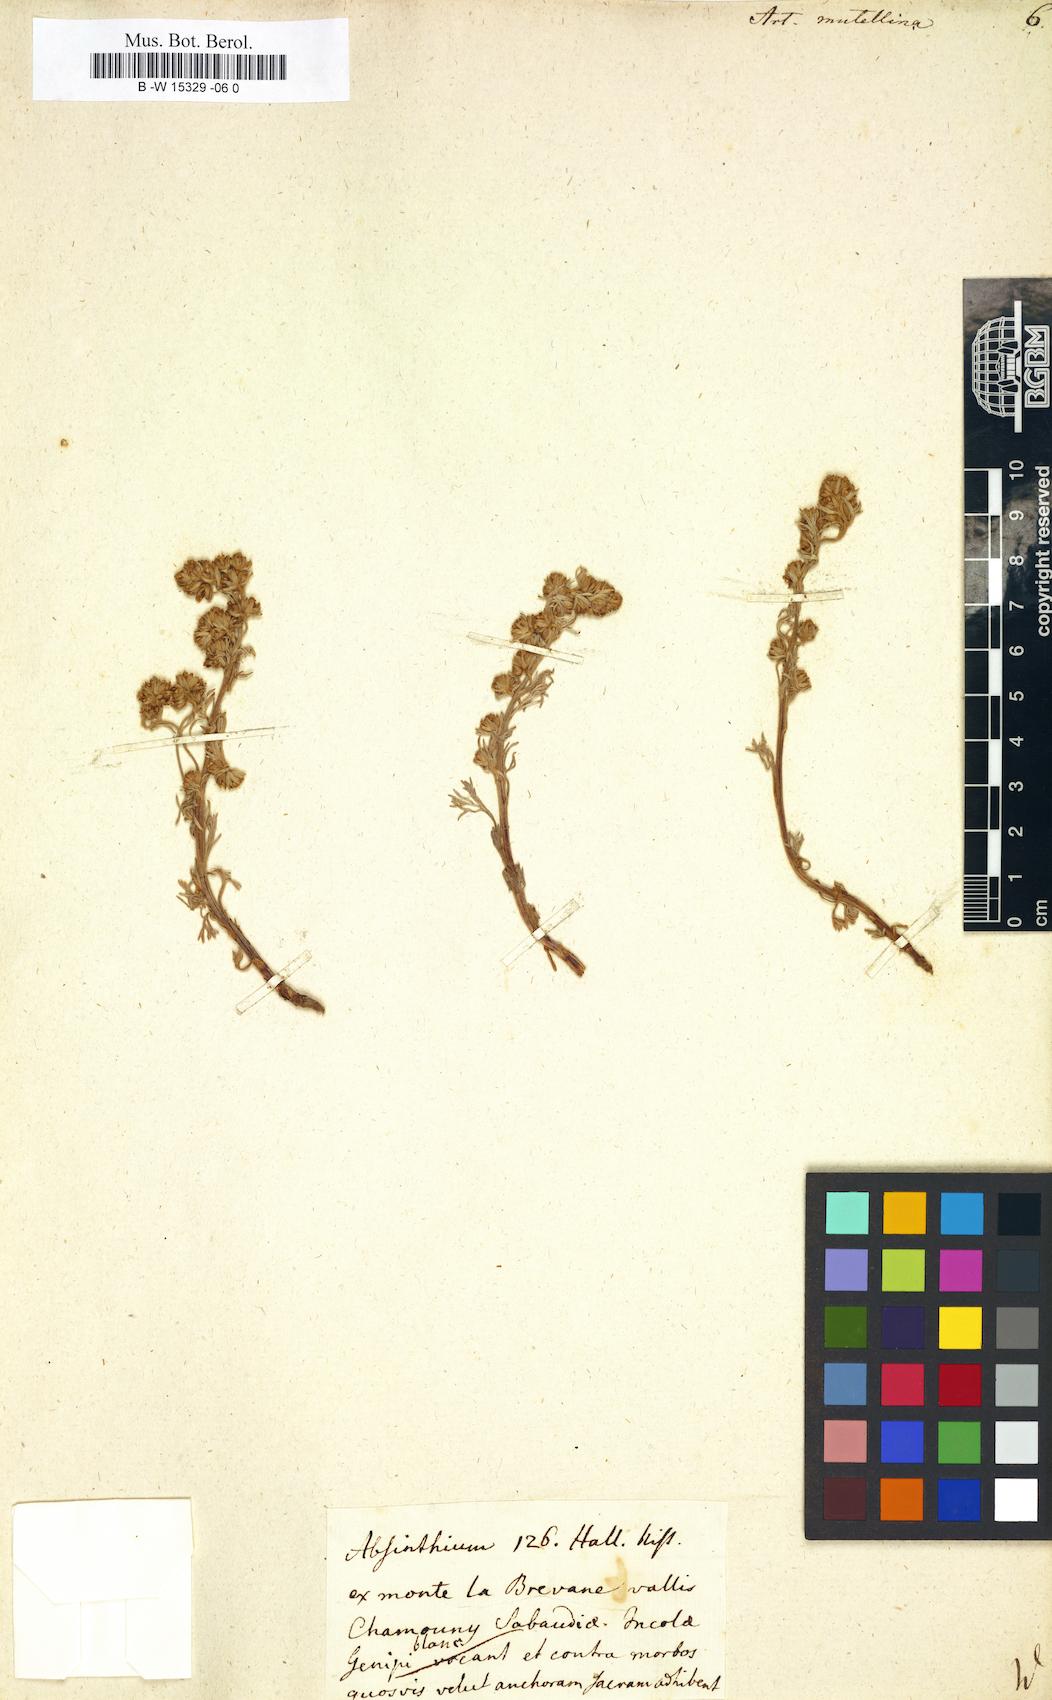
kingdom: Plantae
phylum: Tracheophyta
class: Magnoliopsida
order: Asterales
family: Asteraceae
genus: Artemisia
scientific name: Artemisia mutellina
